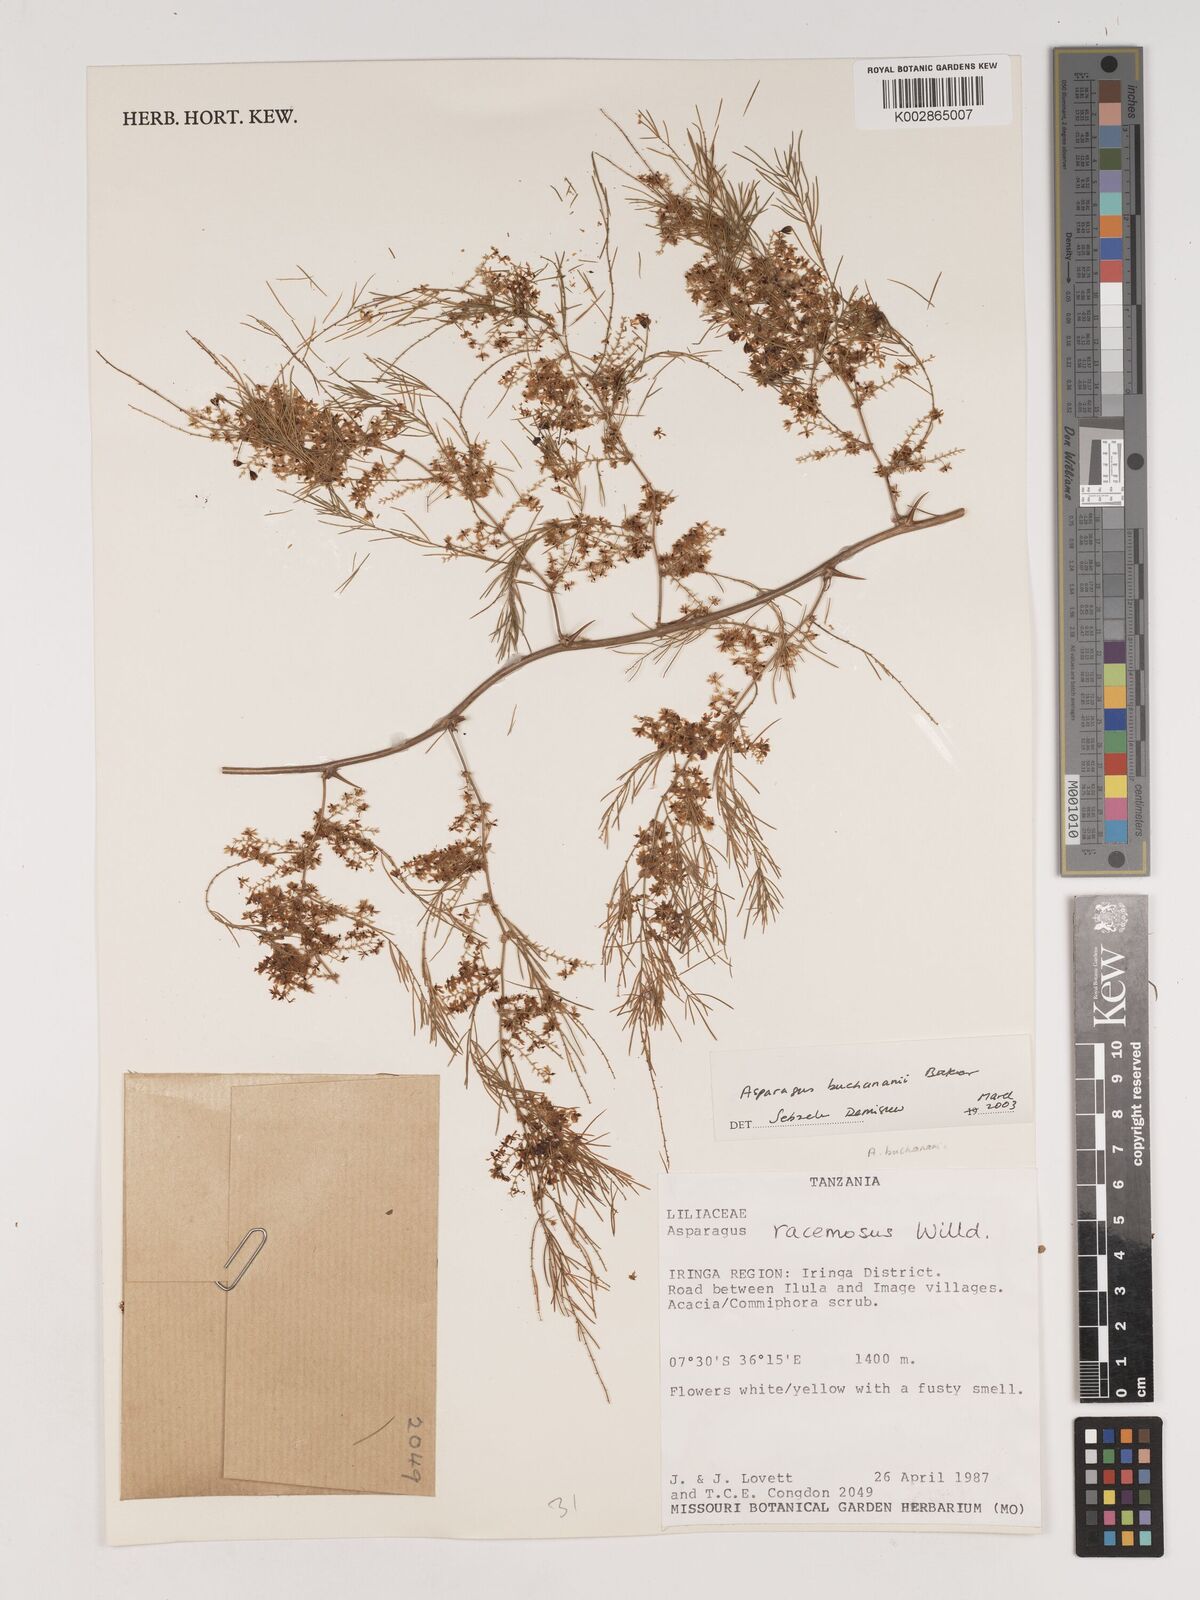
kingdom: Plantae
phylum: Tracheophyta
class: Liliopsida
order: Asparagales
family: Asparagaceae
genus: Asparagus
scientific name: Asparagus buchananii
